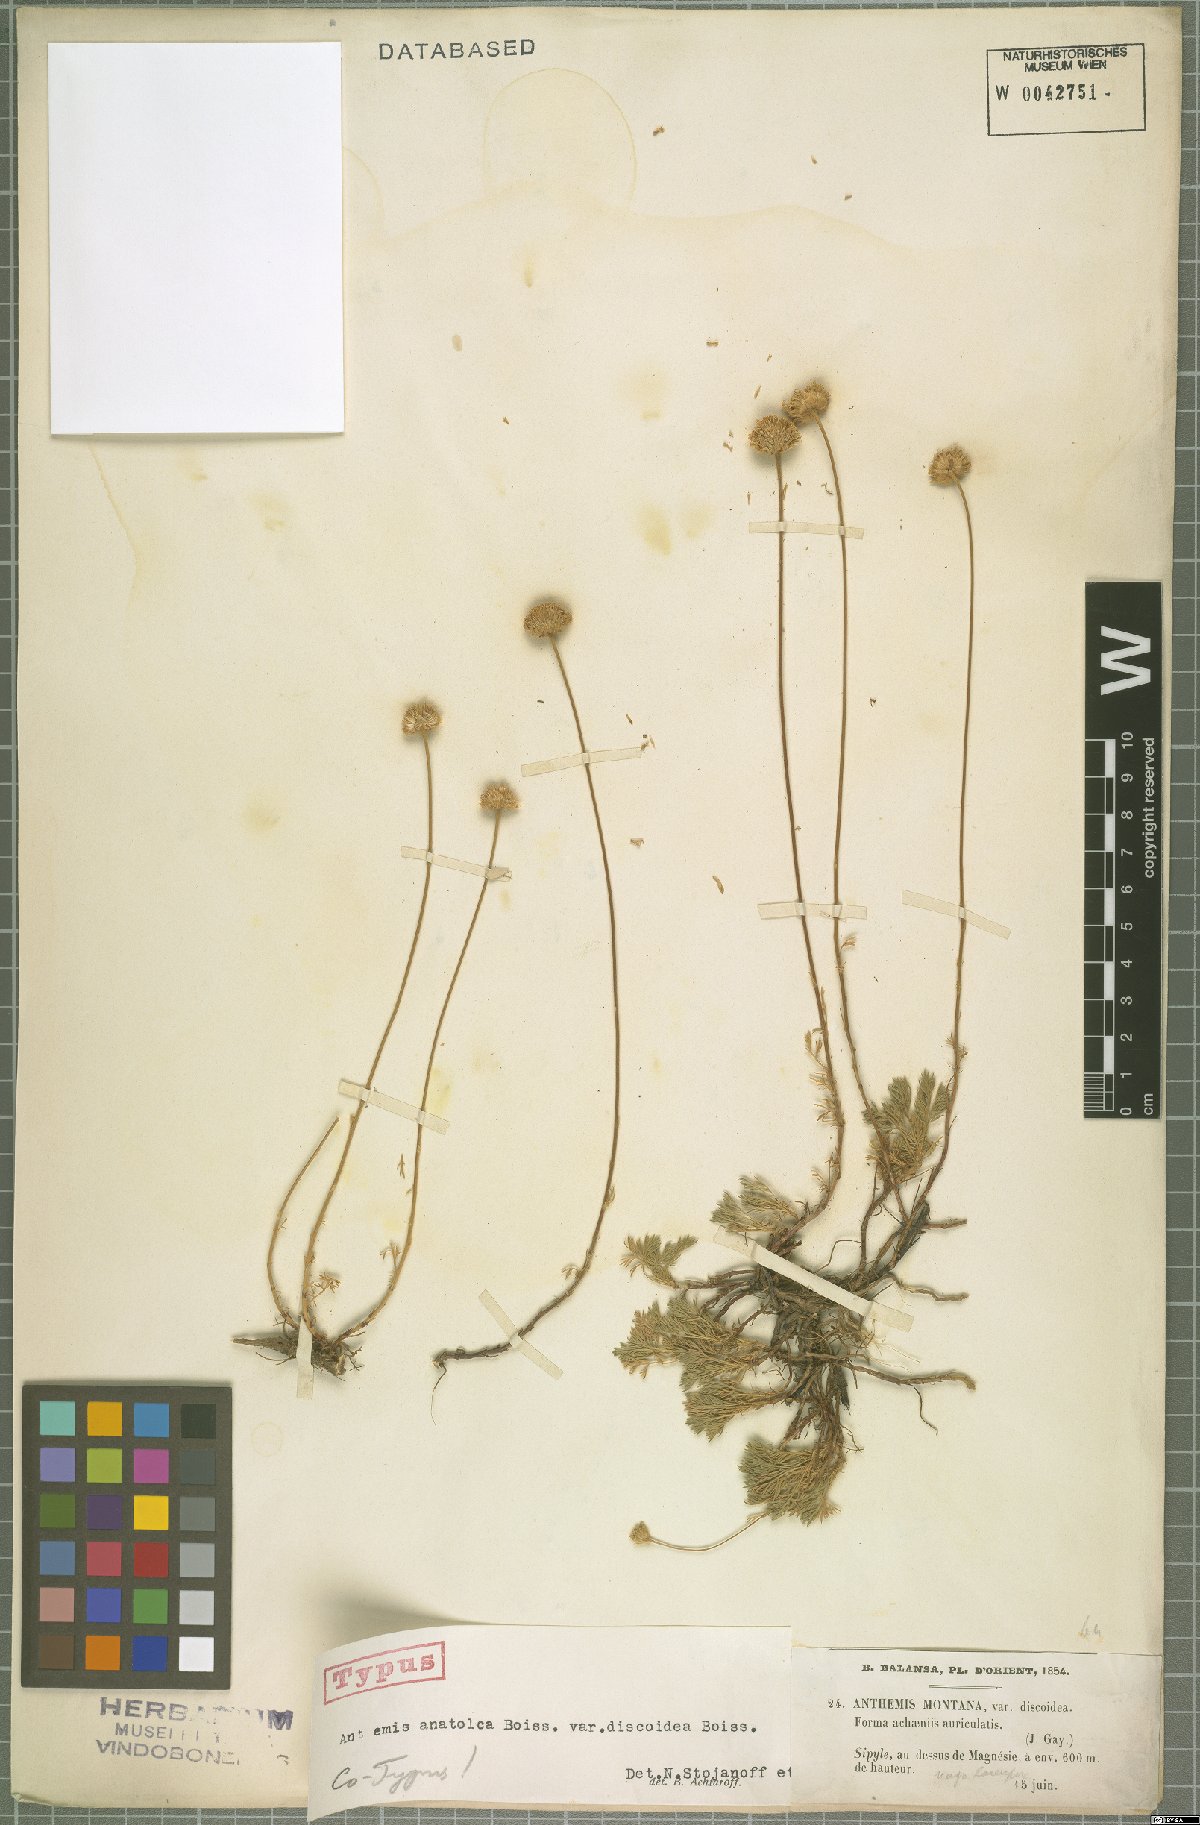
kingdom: Plantae
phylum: Tracheophyta
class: Magnoliopsida
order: Asterales
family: Asteraceae
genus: Anthemis
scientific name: Anthemis cretica
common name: Mountain dog-daisy
